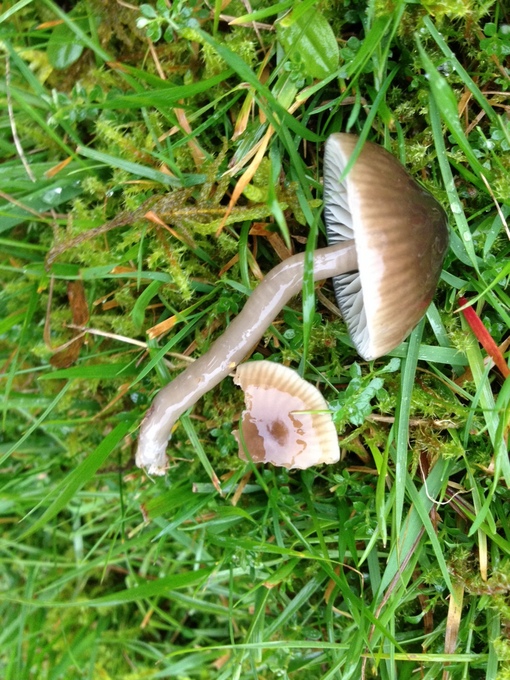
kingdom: Fungi
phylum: Basidiomycota
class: Agaricomycetes
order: Agaricales
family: Hygrophoraceae
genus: Gliophorus
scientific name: Gliophorus irrigatus
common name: slimet vokshat
